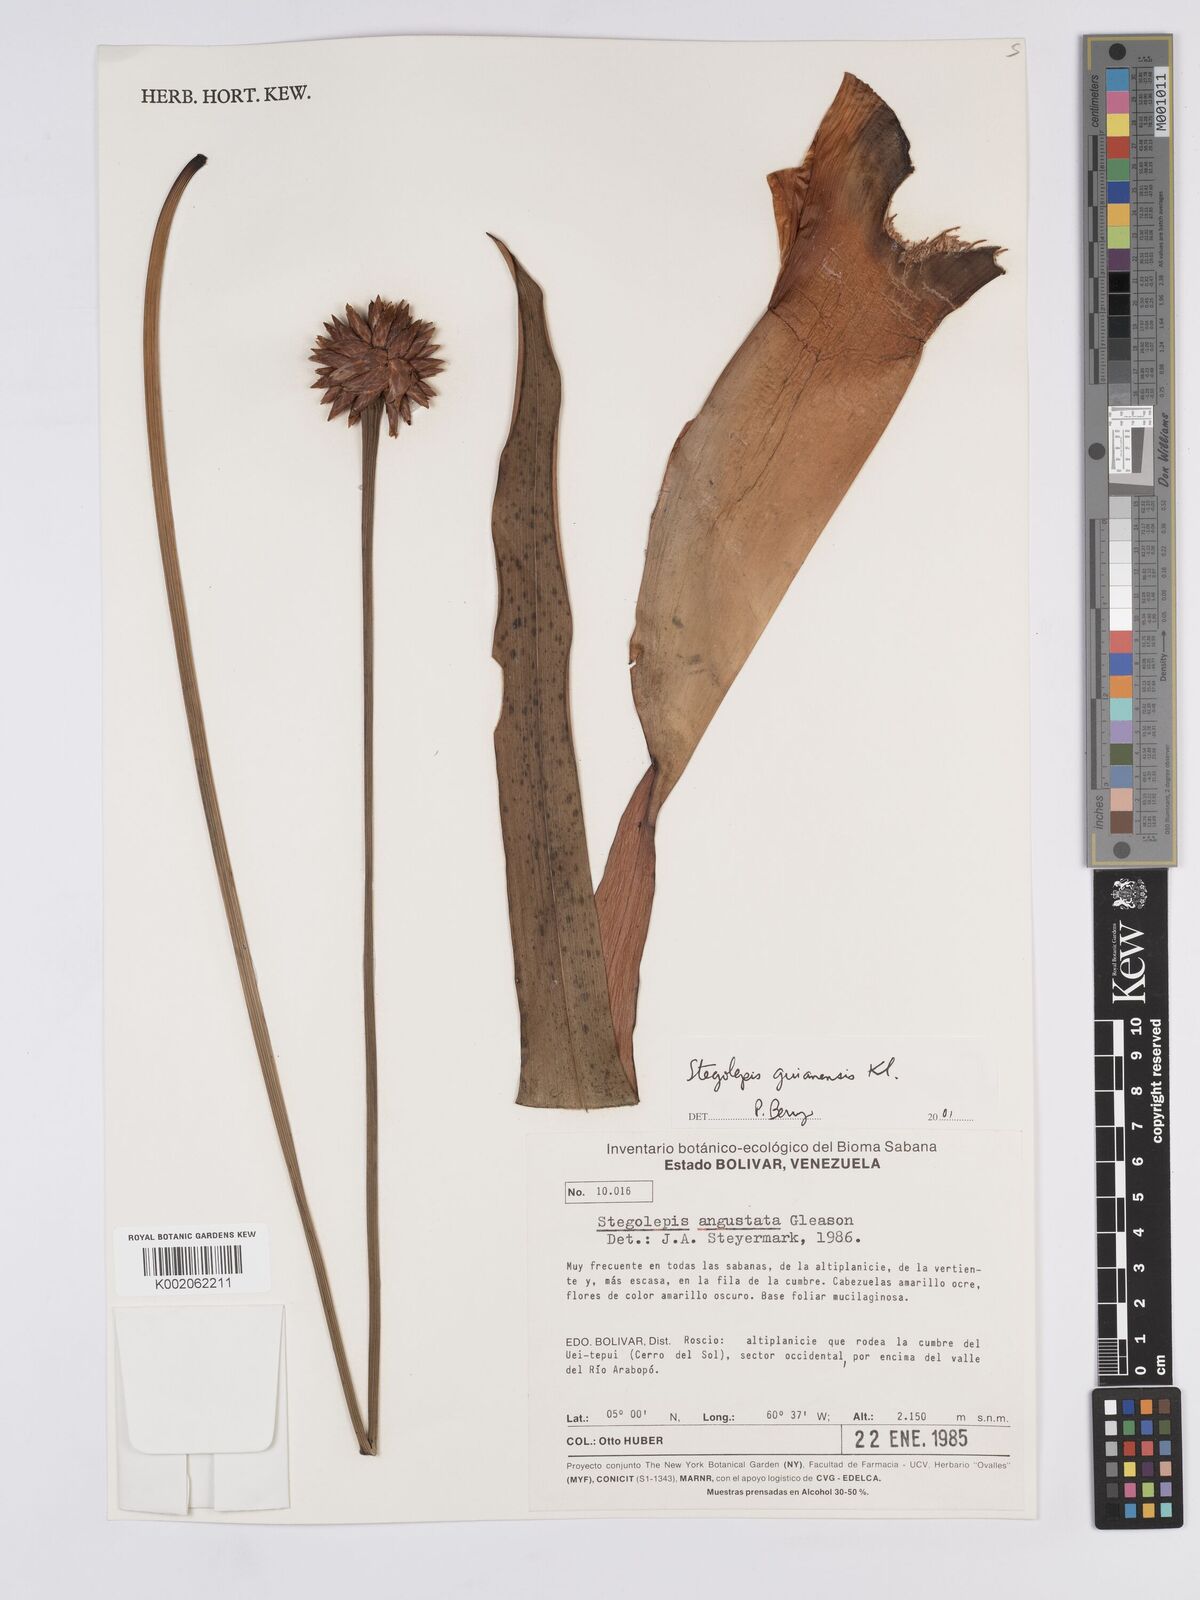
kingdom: Plantae
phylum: Tracheophyta
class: Liliopsida
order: Poales
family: Rapateaceae
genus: Stegolepis
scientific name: Stegolepis guianensis
